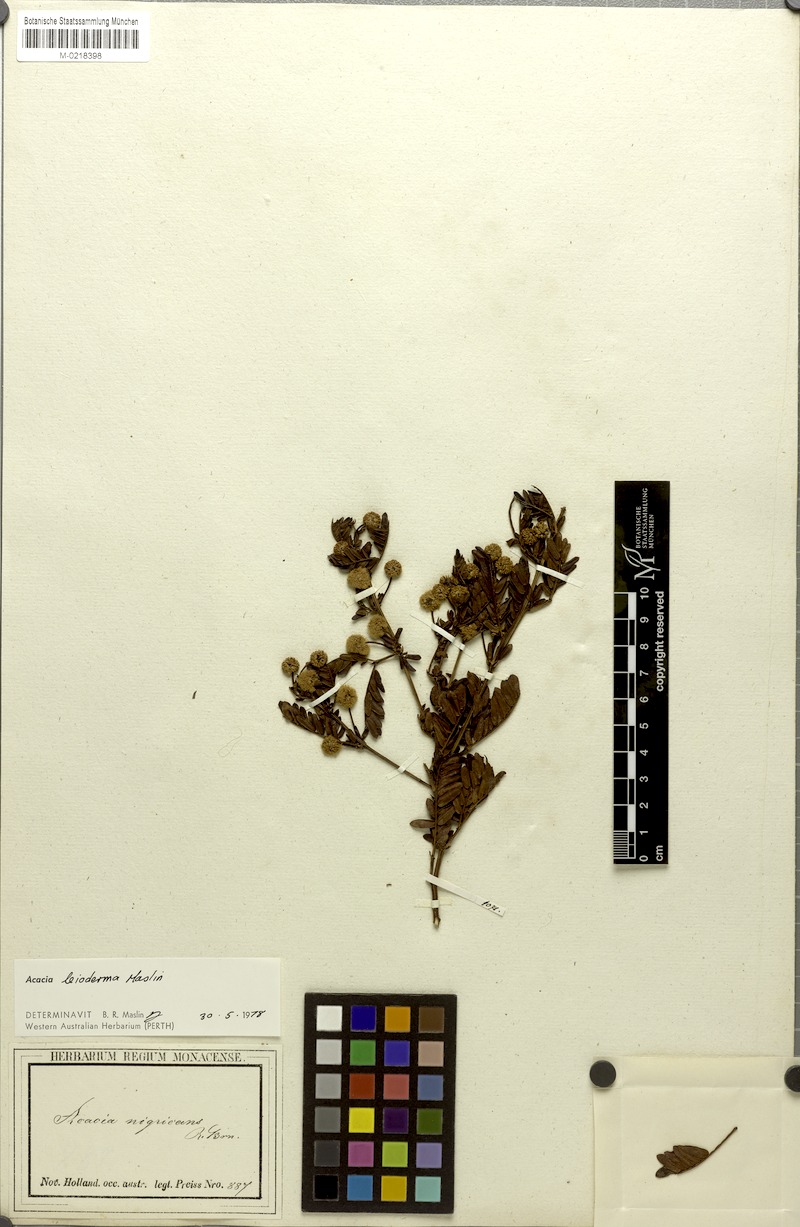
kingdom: Plantae
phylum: Tracheophyta
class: Magnoliopsida
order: Fabales
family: Fabaceae
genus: Acacia
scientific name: Acacia leioderma
